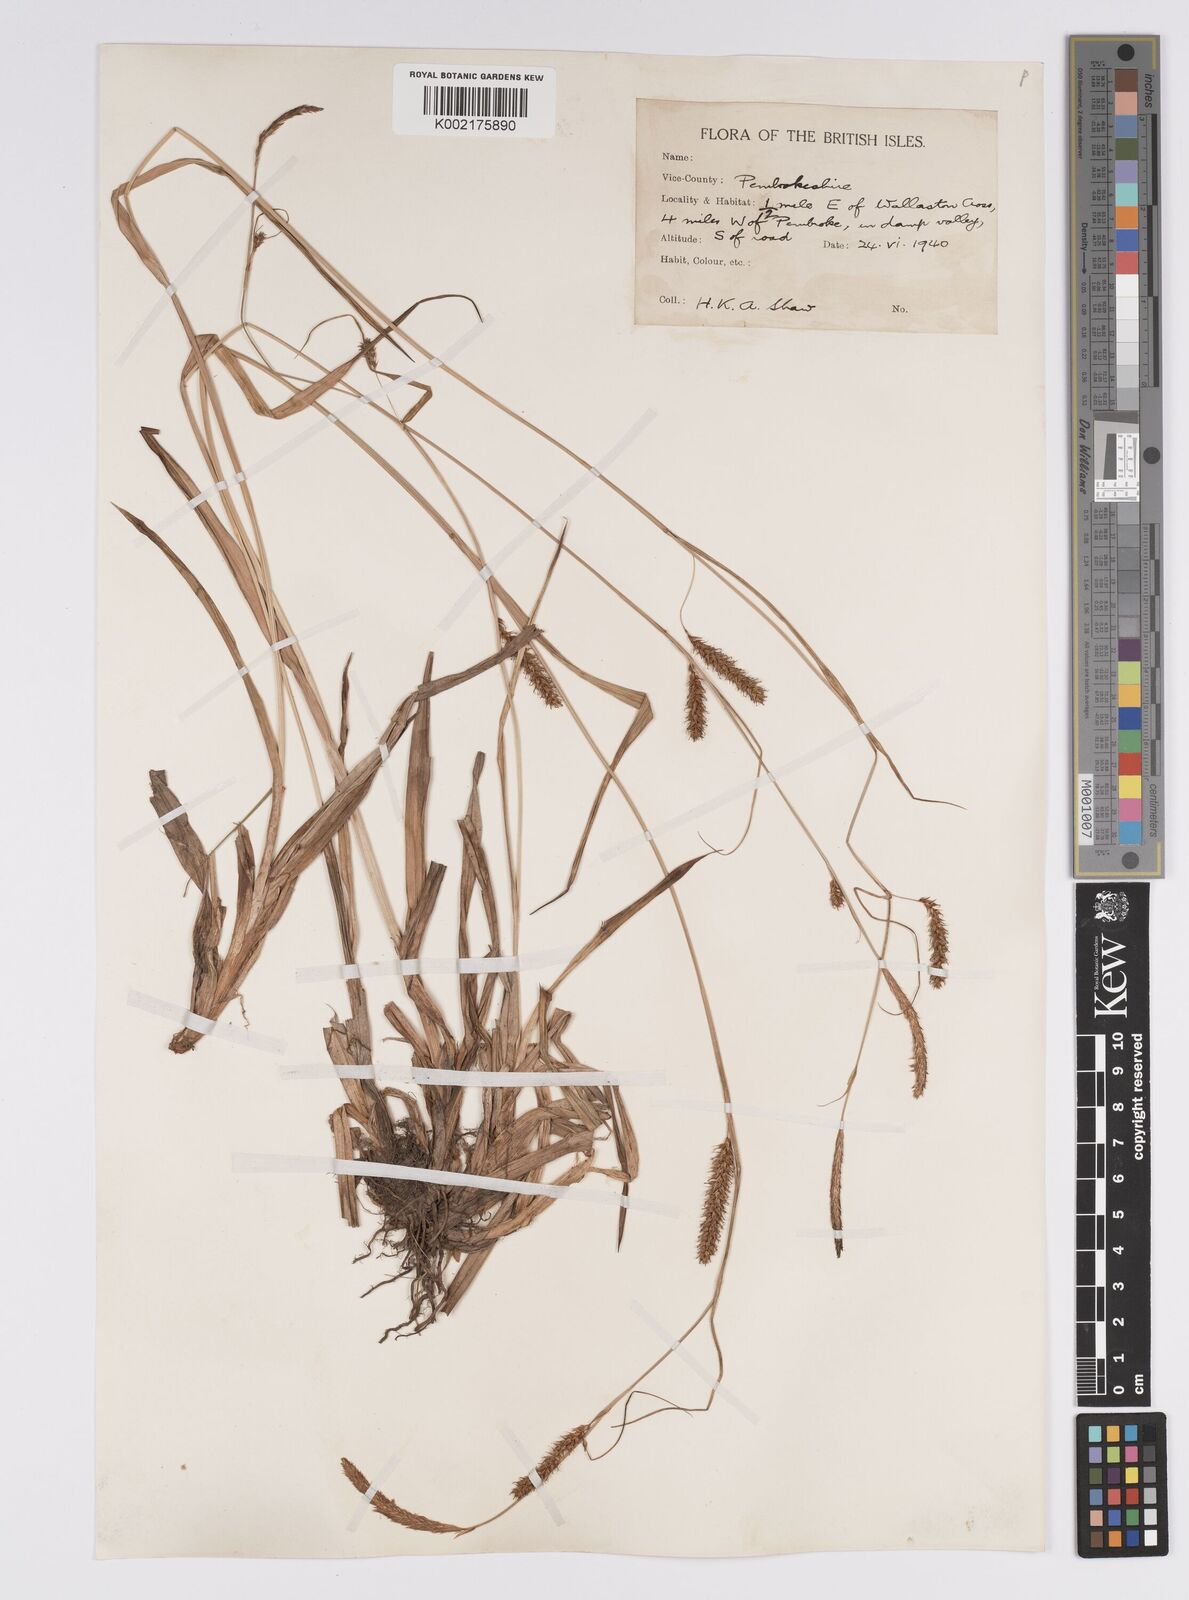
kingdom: Plantae
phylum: Tracheophyta
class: Liliopsida
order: Poales
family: Cyperaceae
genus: Carex
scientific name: Carex laevigata
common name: Smooth-stalked sedge
